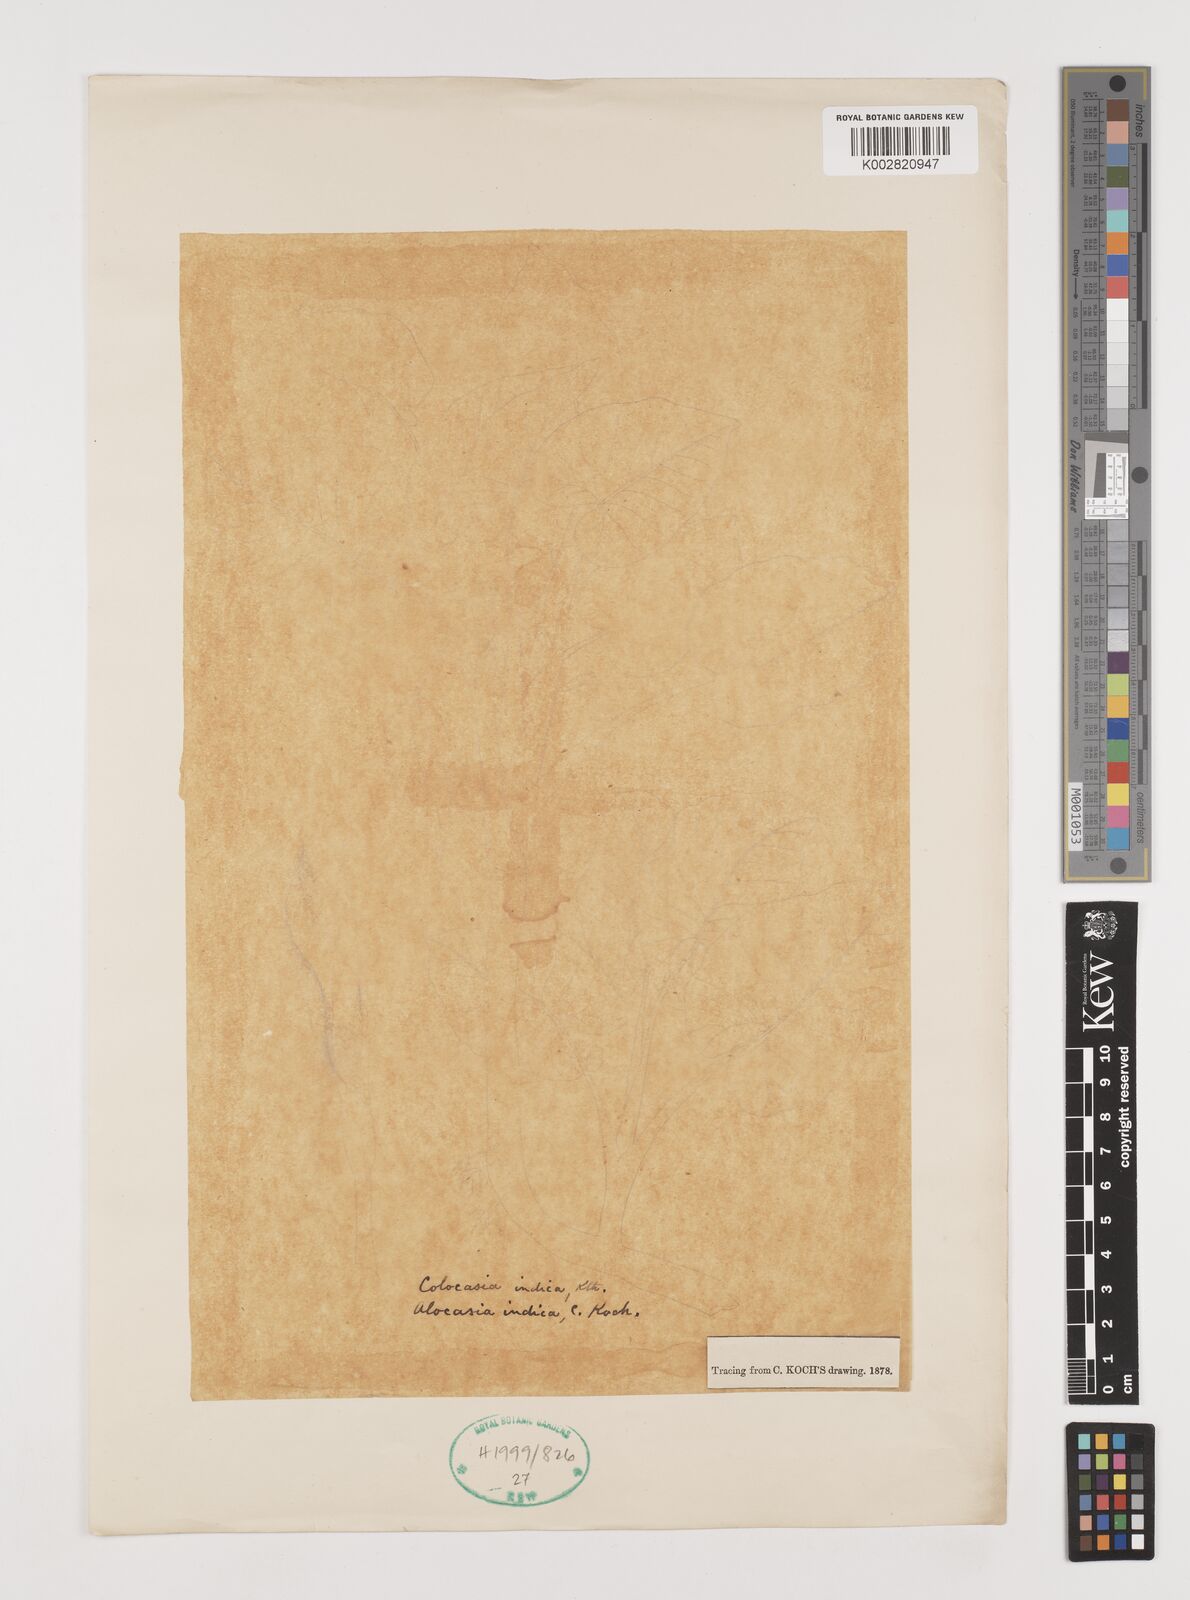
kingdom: Plantae
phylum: Tracheophyta
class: Liliopsida
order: Alismatales
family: Araceae
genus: Alocasia
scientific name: Alocasia macrorrhizos
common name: Giant taro
